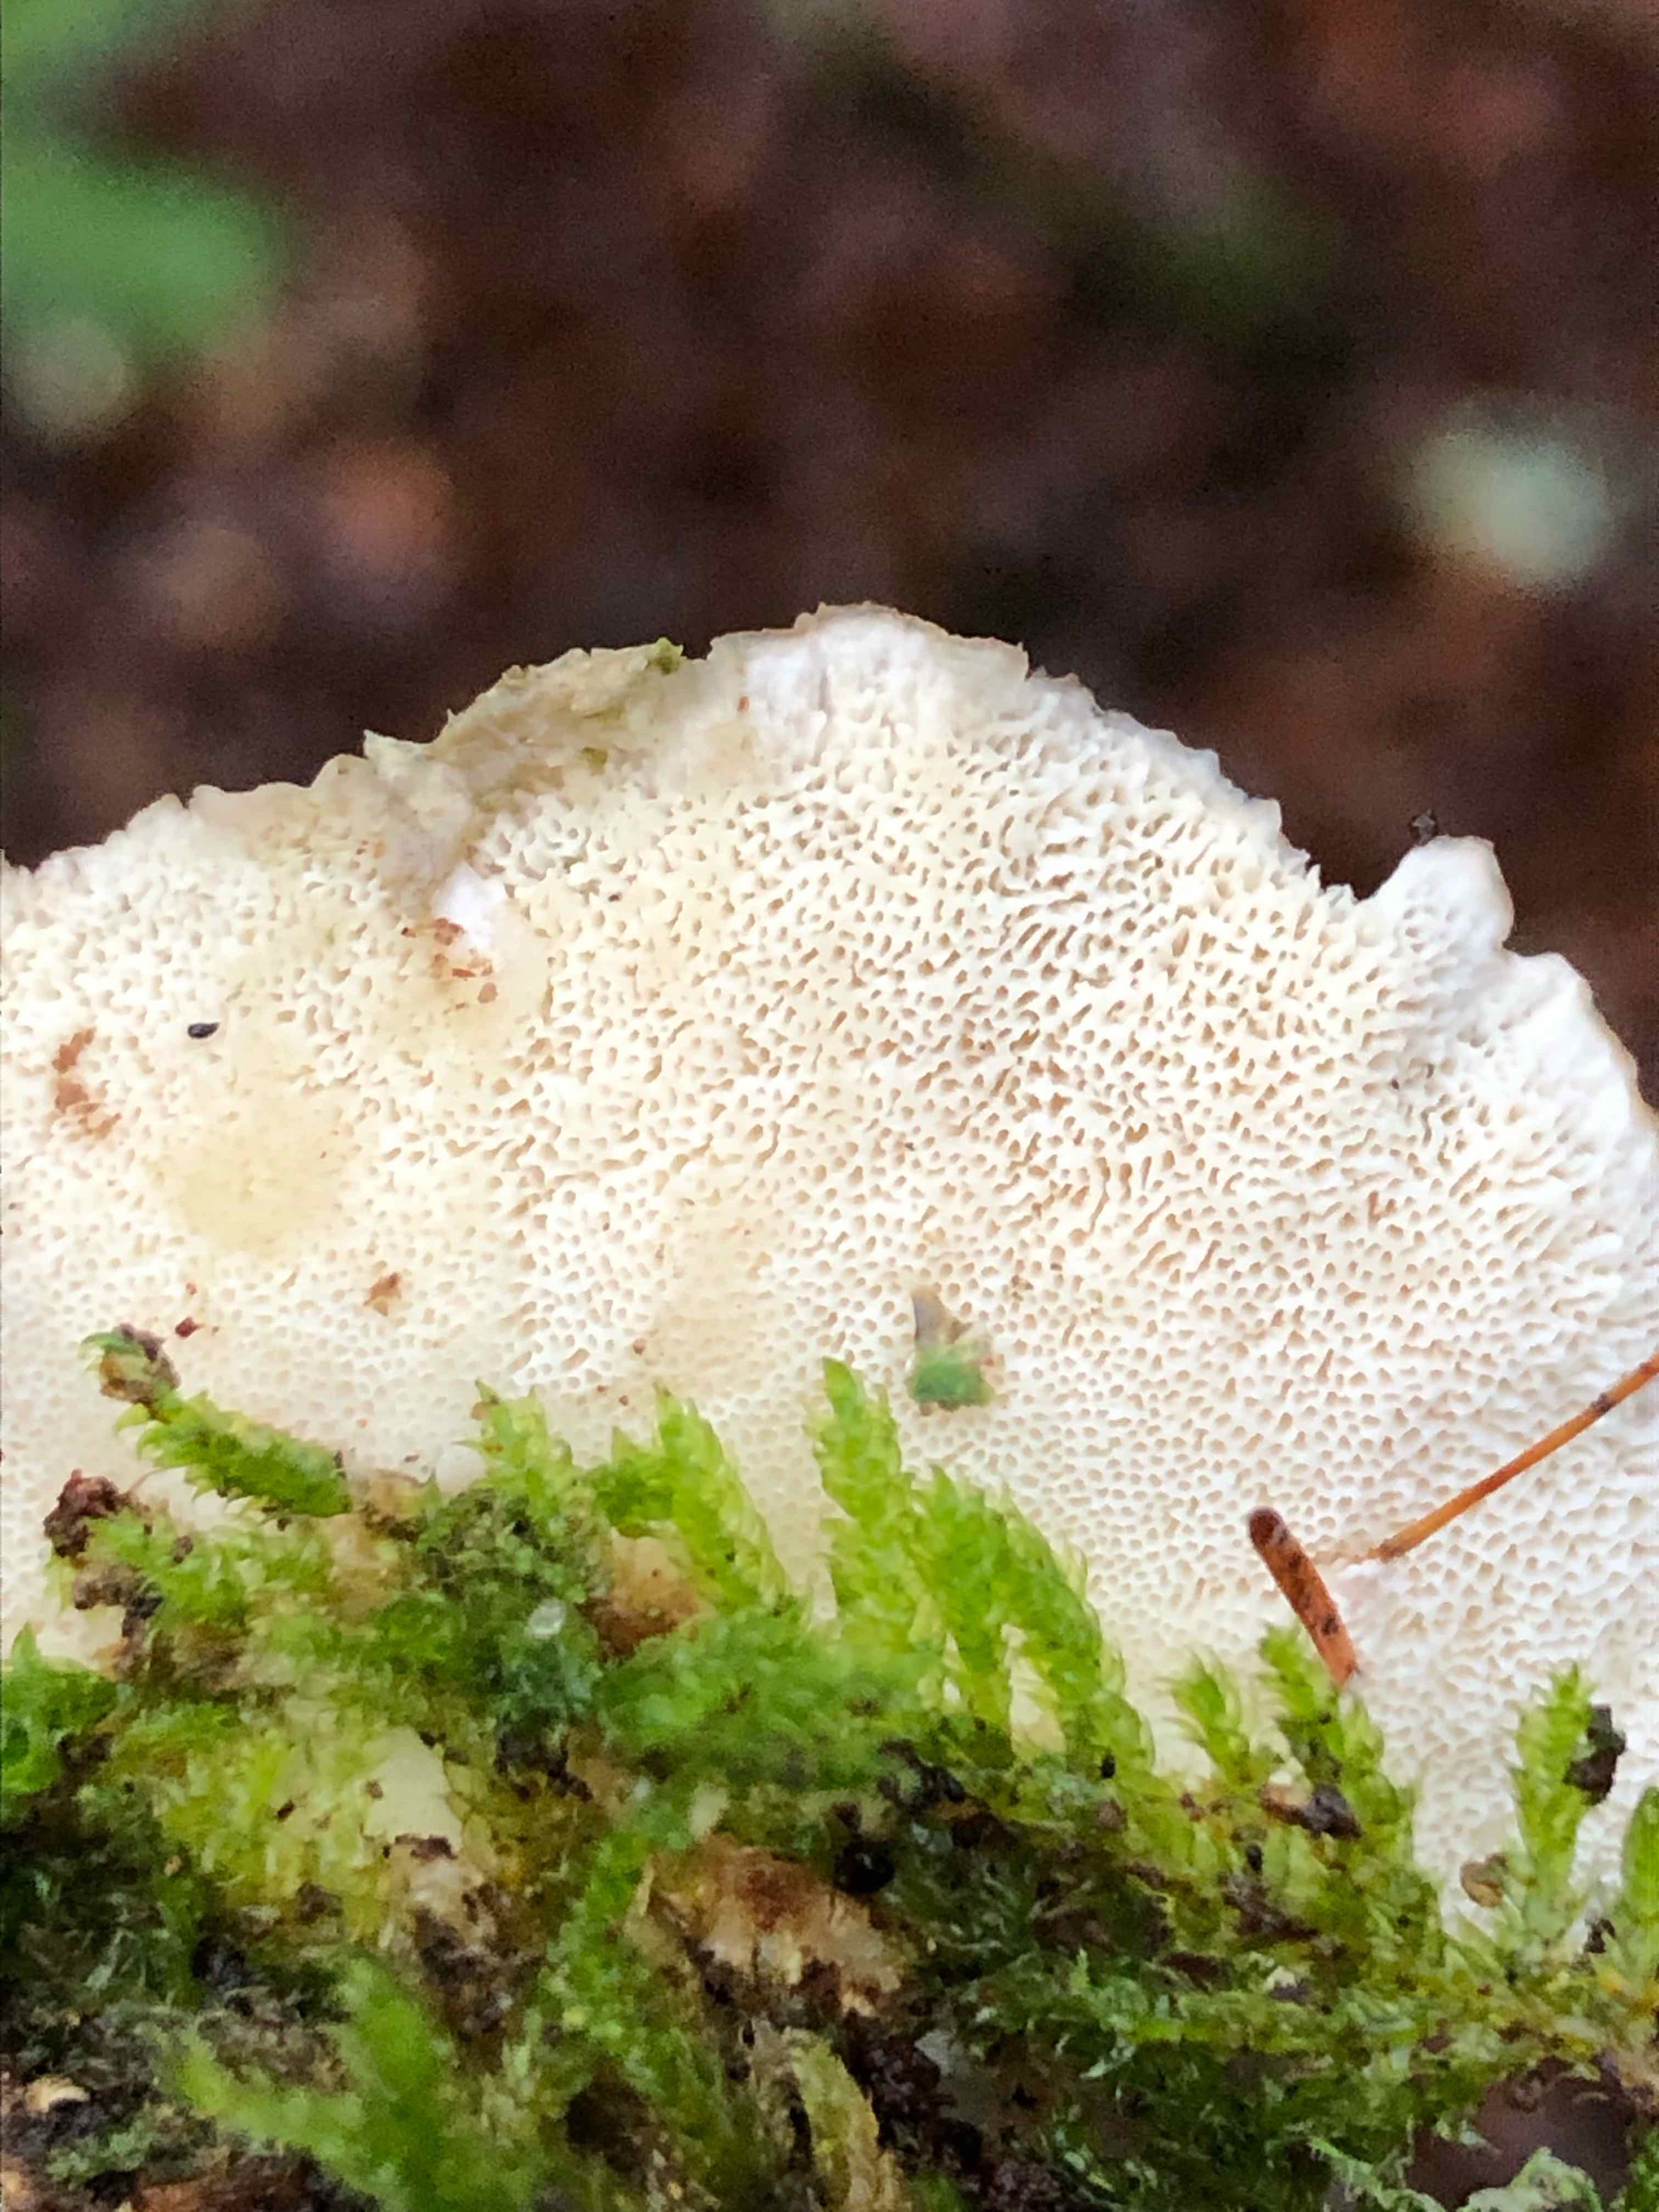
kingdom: Fungi
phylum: Basidiomycota
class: Agaricomycetes
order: Polyporales
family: Polyporaceae
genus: Trametes
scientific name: Trametes ochracea
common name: bæltet læderporesvamp
